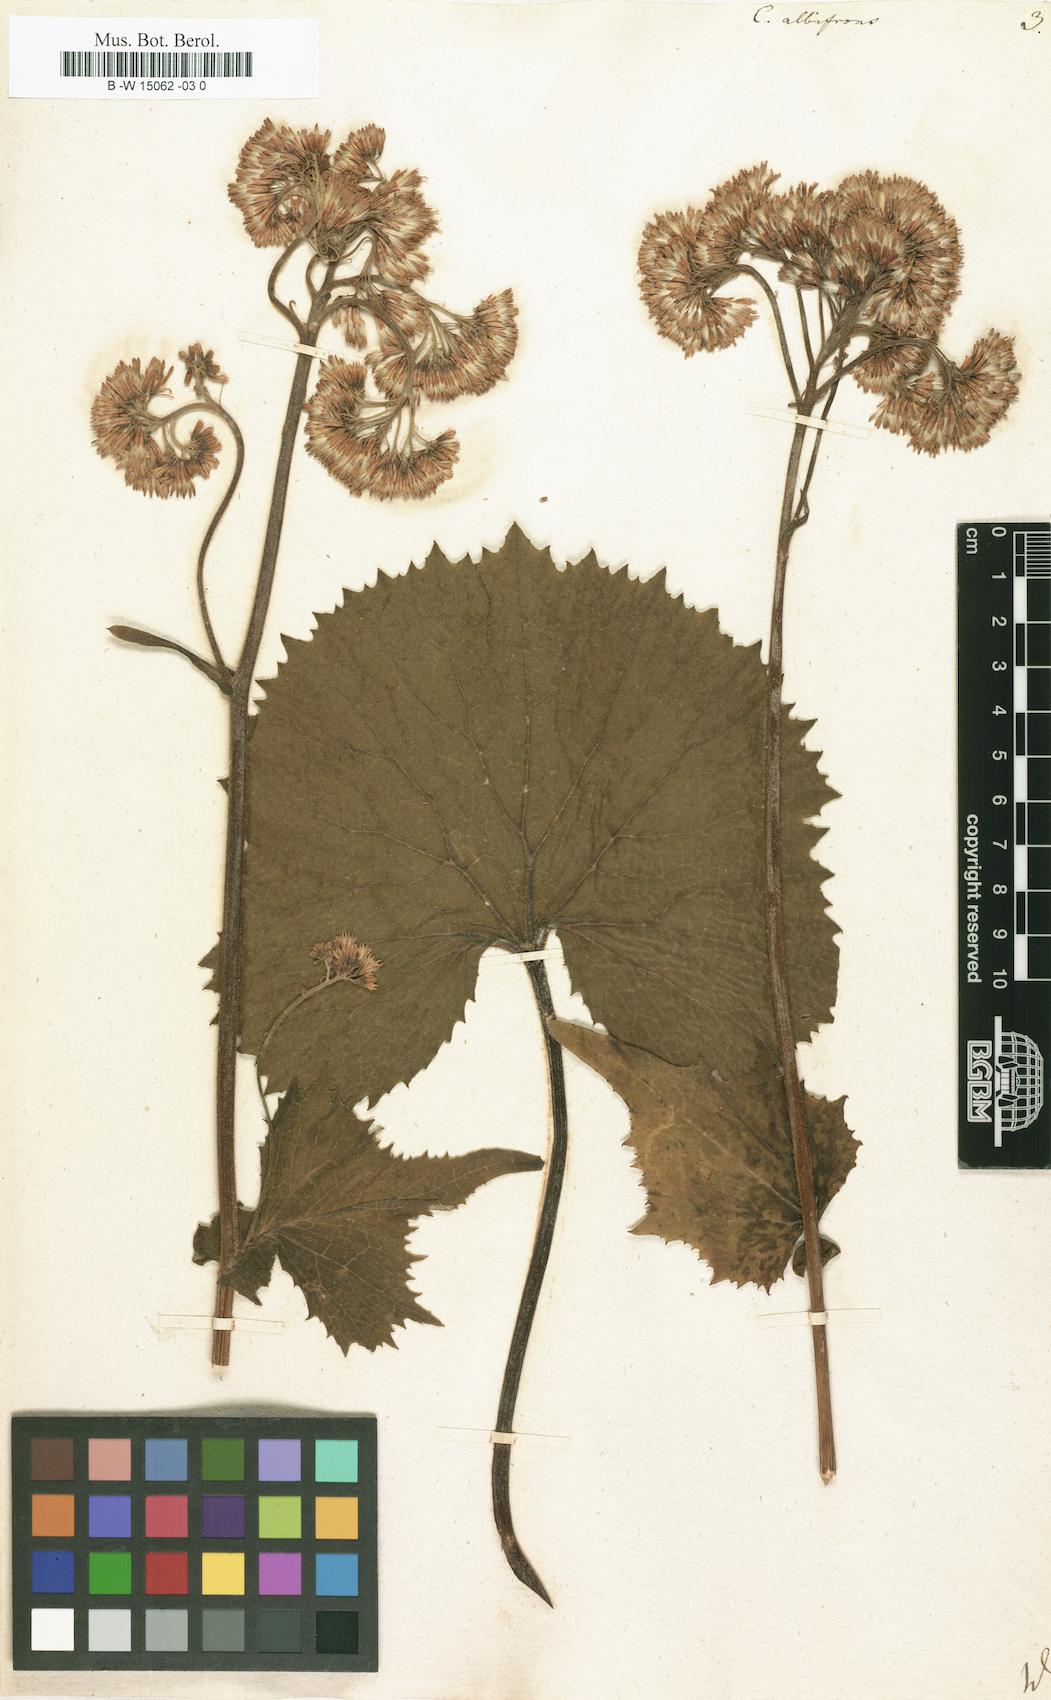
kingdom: Plantae
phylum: Tracheophyta
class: Magnoliopsida
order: Asterales
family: Asteraceae
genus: Adenostyles
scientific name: Adenostyles alliariae
